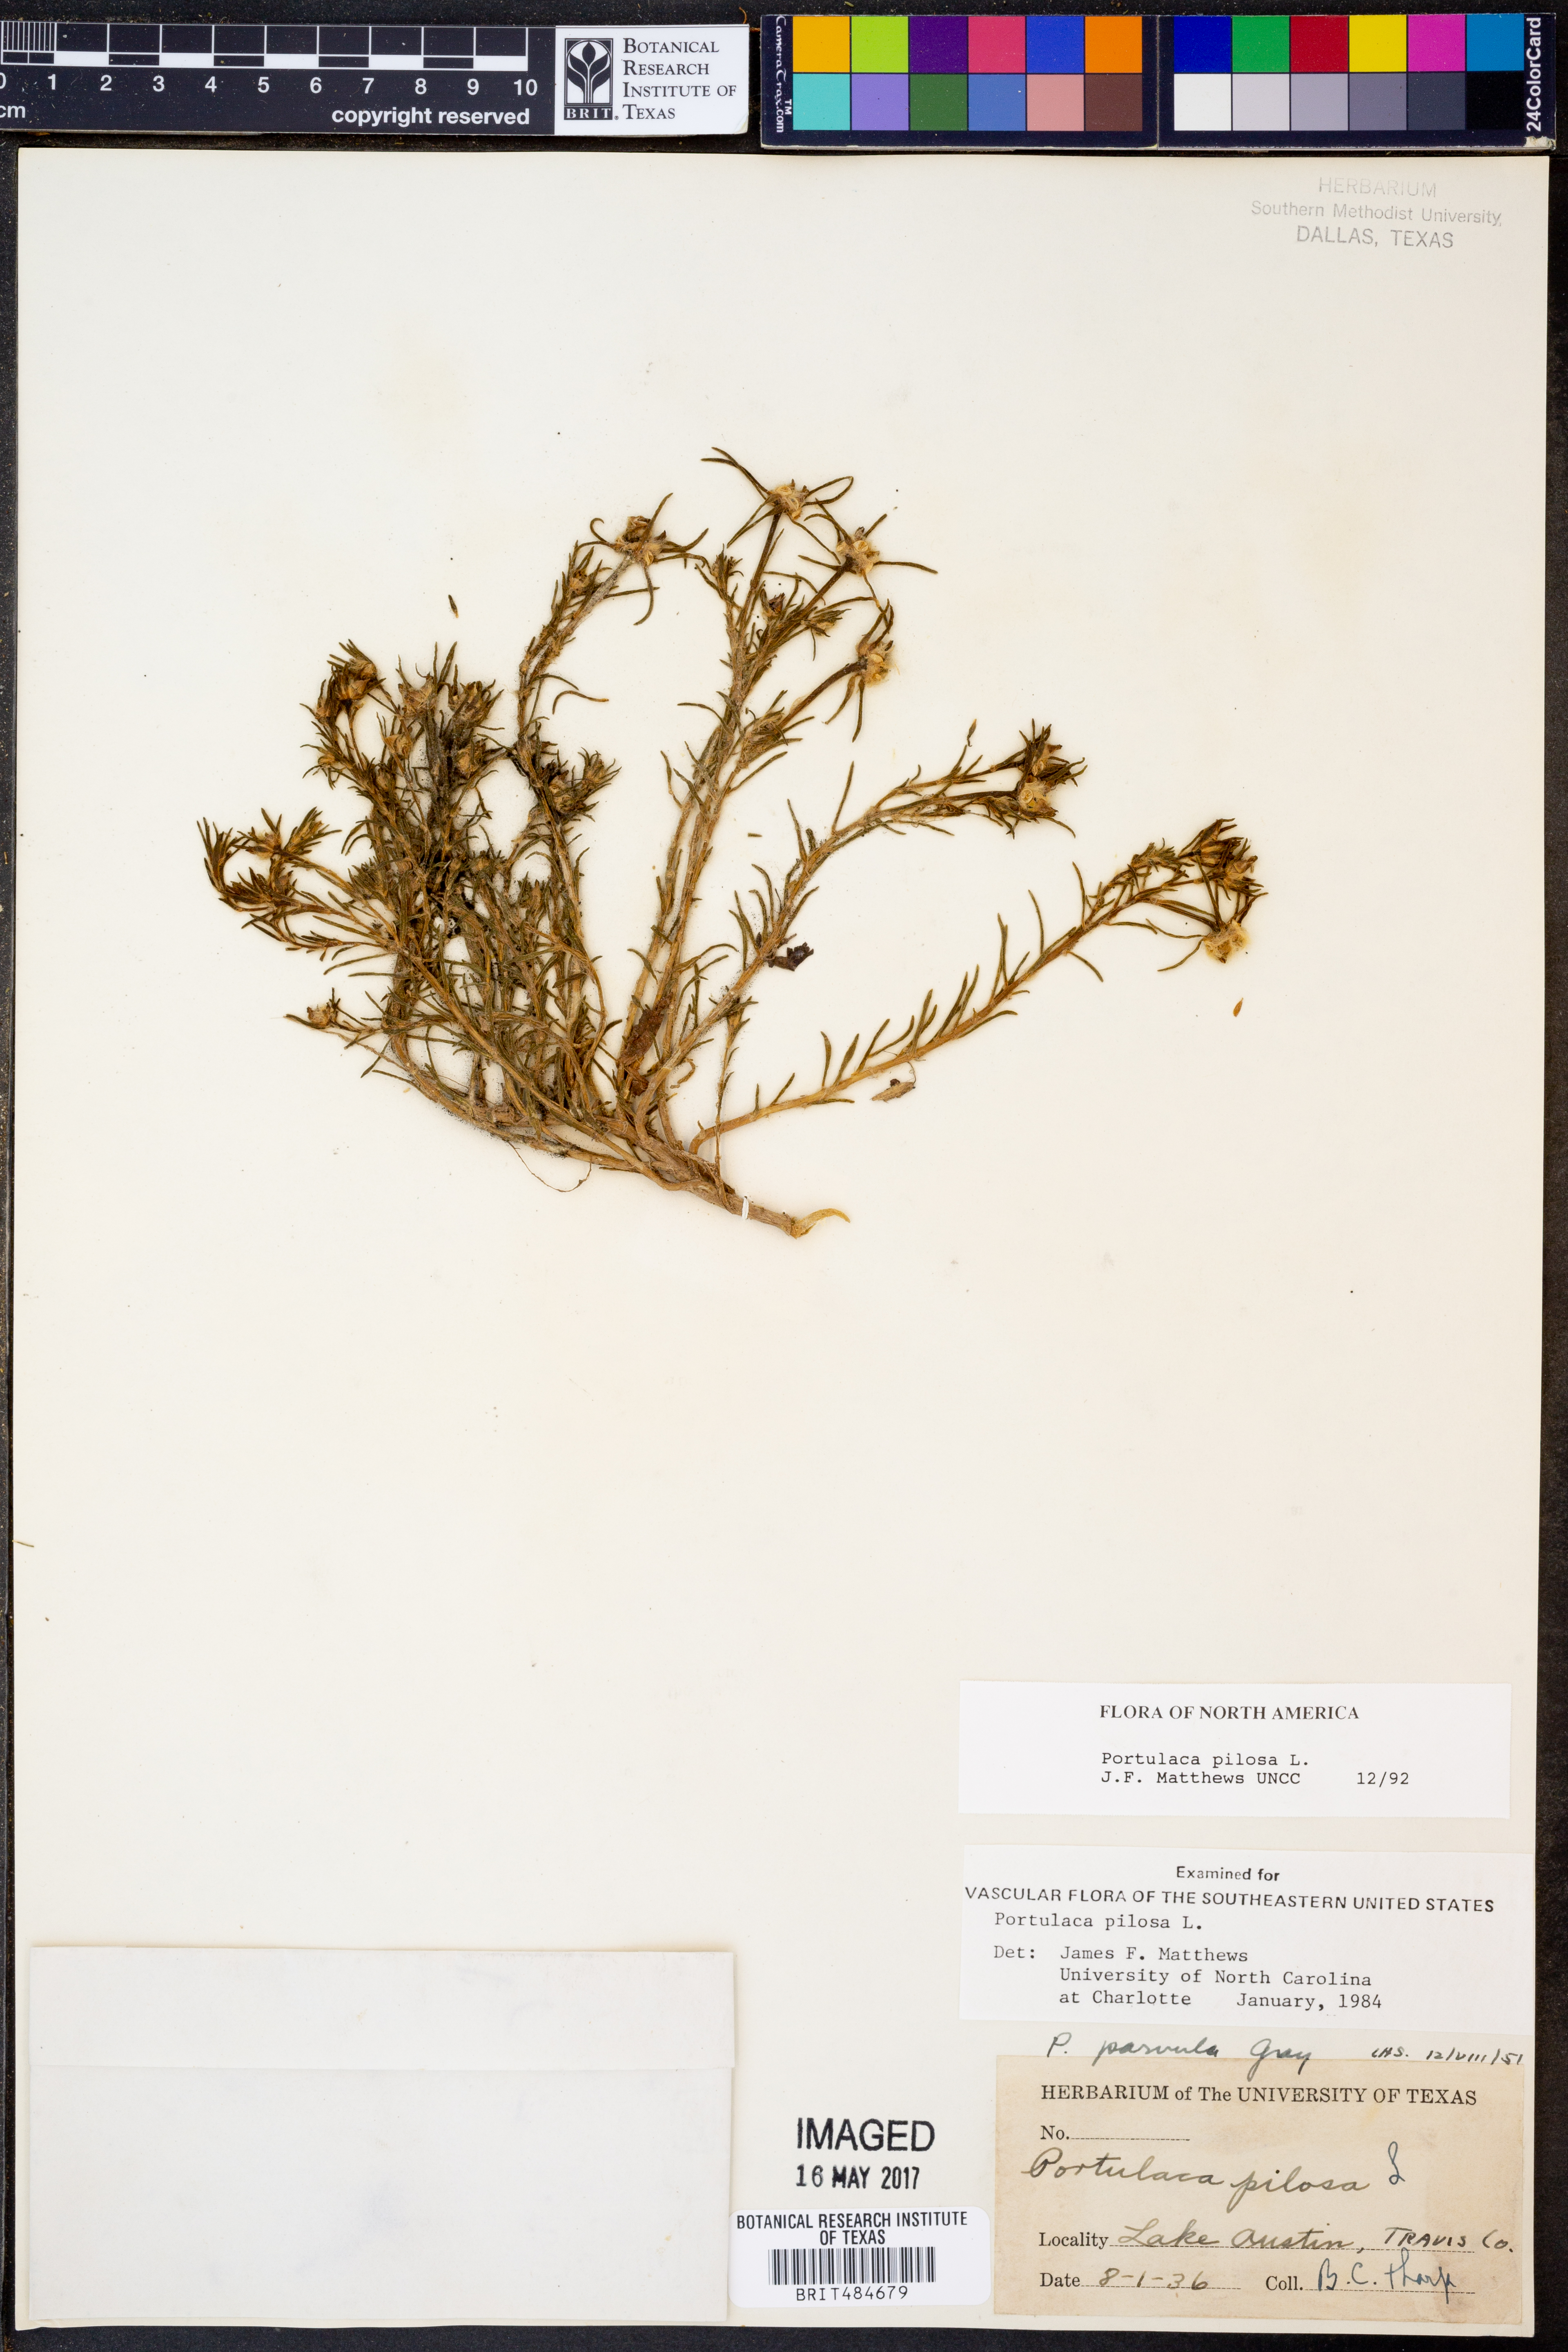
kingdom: Plantae
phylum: Tracheophyta
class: Magnoliopsida
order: Caryophyllales
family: Portulacaceae
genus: Portulaca
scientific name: Portulaca pilosa
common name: Kiss me quick
